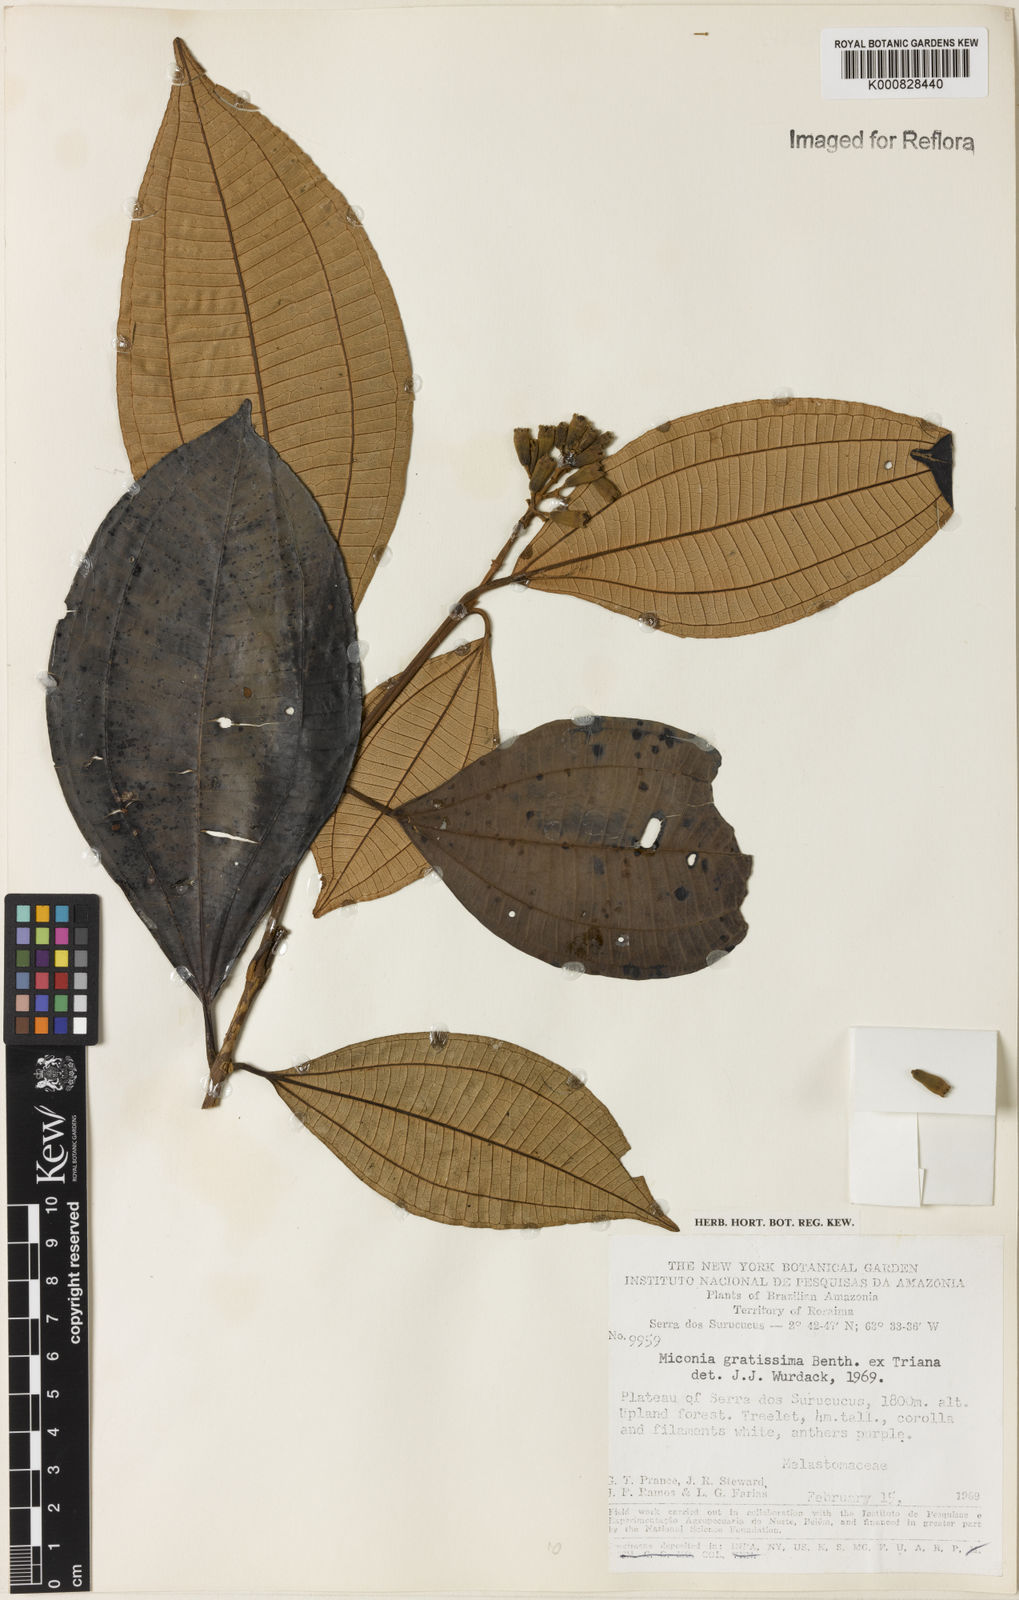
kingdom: Plantae
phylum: Tracheophyta
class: Magnoliopsida
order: Myrtales
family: Melastomataceae
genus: Miconia
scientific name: Miconia gratissima
